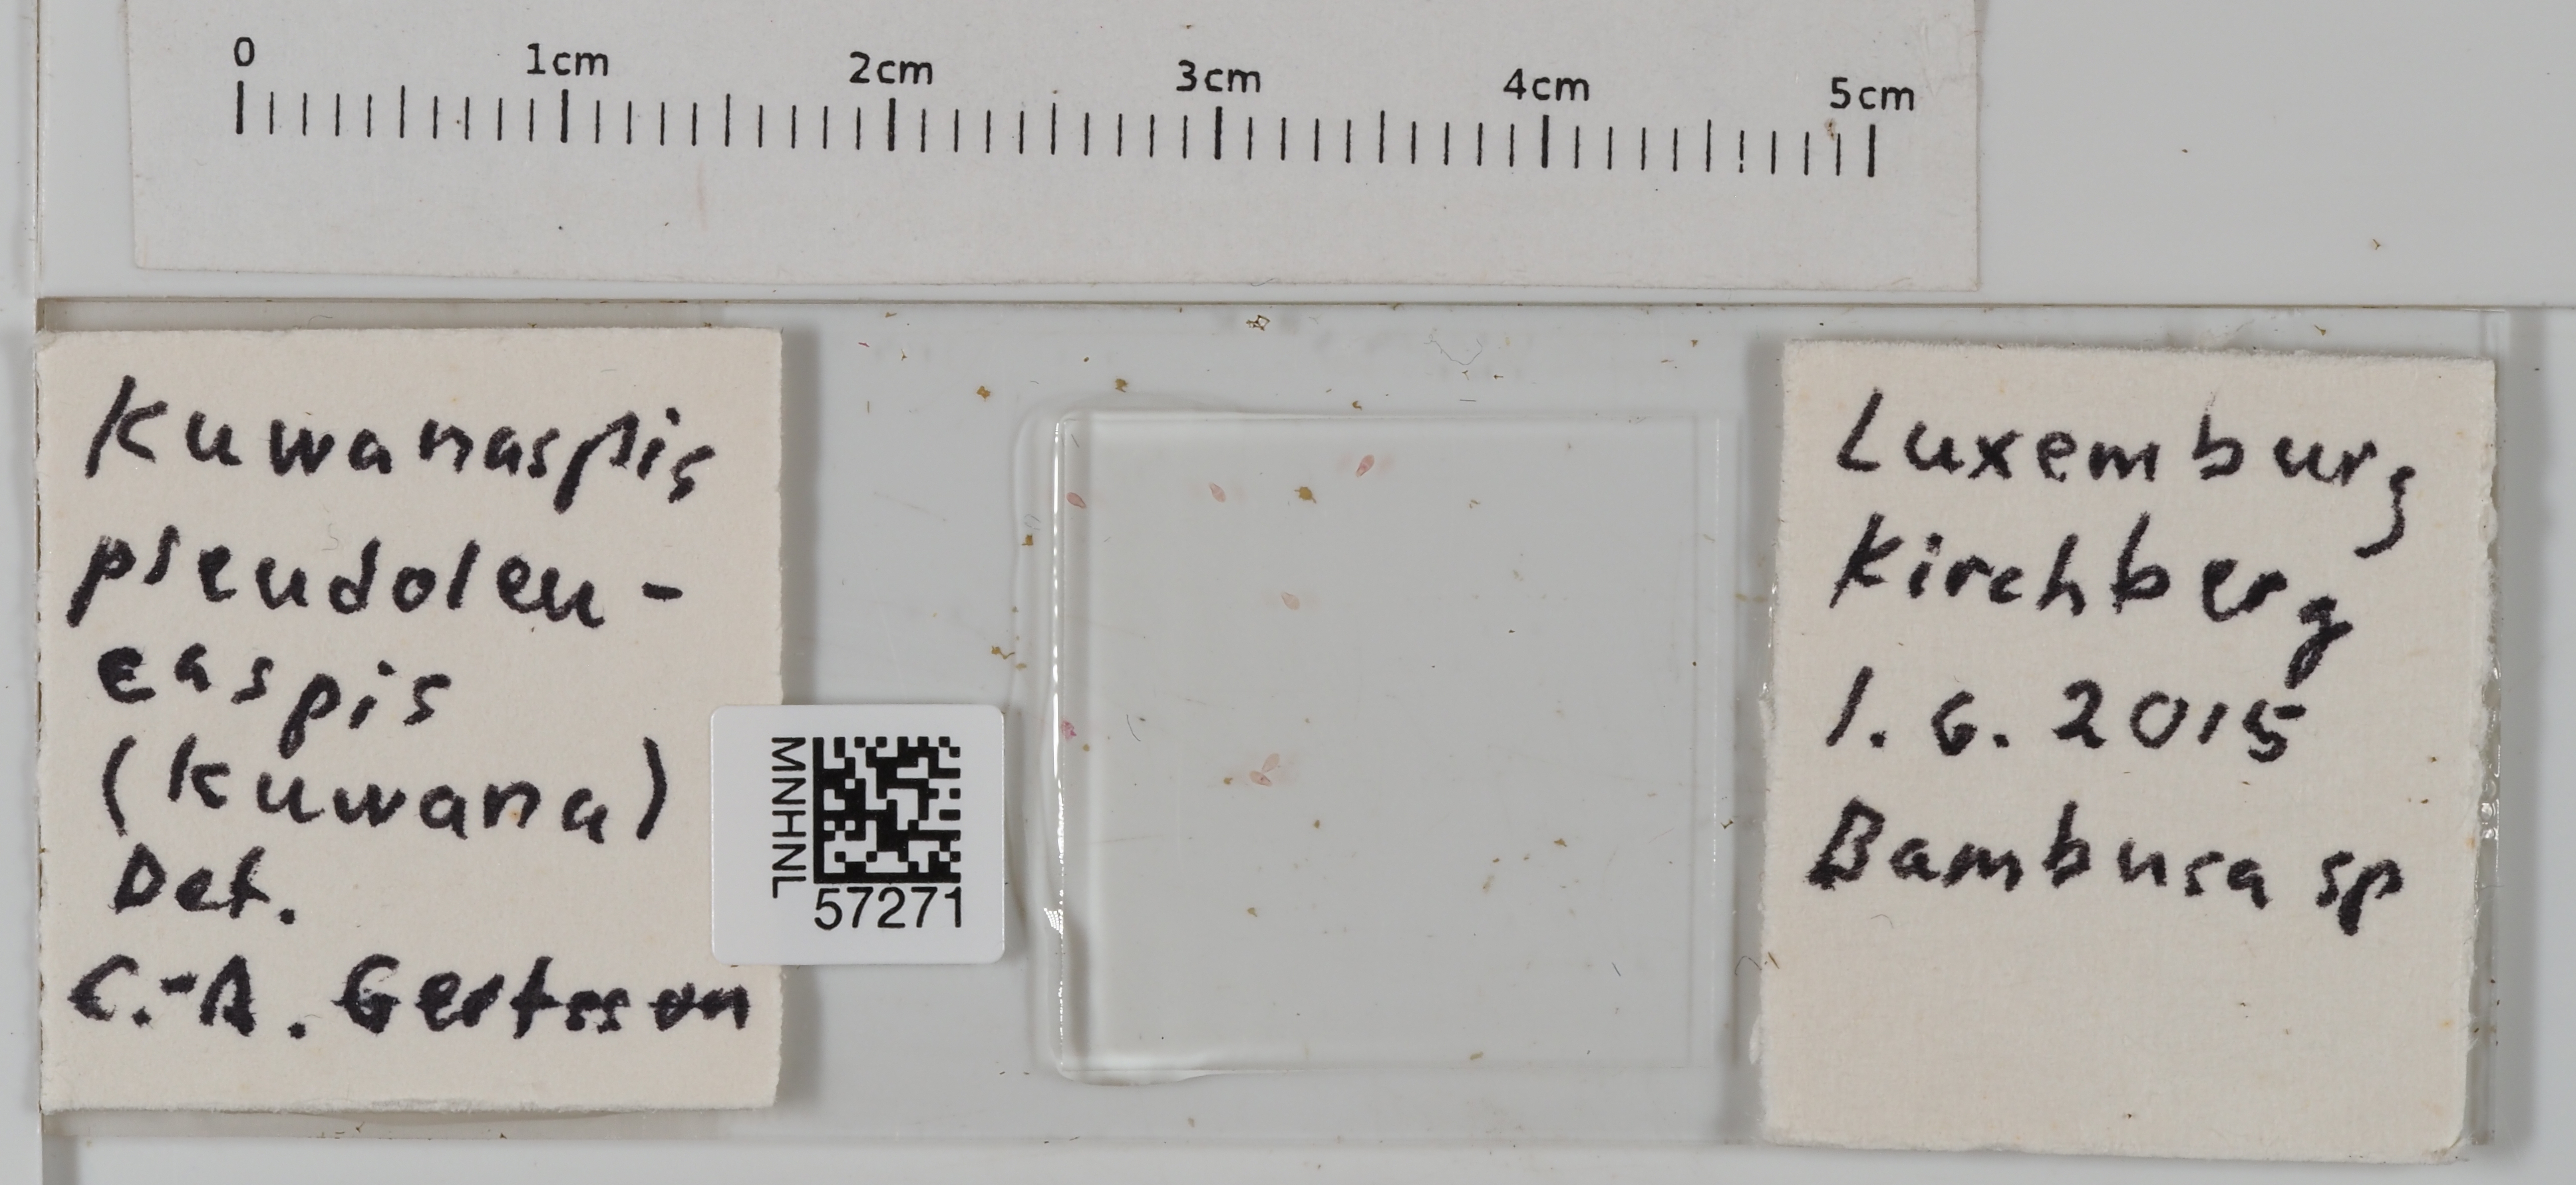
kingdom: Animalia
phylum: Arthropoda
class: Insecta
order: Hemiptera
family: Diaspididae
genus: Kuwanaspis
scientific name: Kuwanaspis pseudoleucaspis
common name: Bamboo diaspidid
